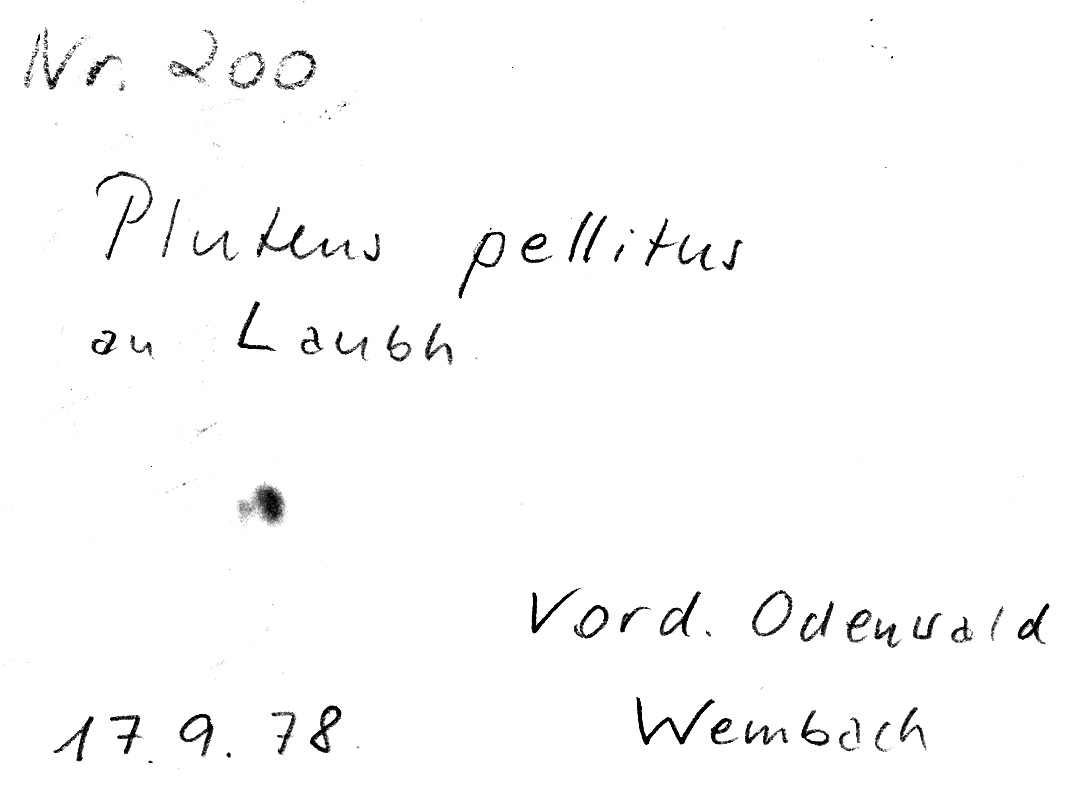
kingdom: Fungi
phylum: Basidiomycota
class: Agaricomycetes
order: Agaricales
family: Pluteaceae
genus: Pluteus
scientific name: Pluteus pellitus
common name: Ghost shield
